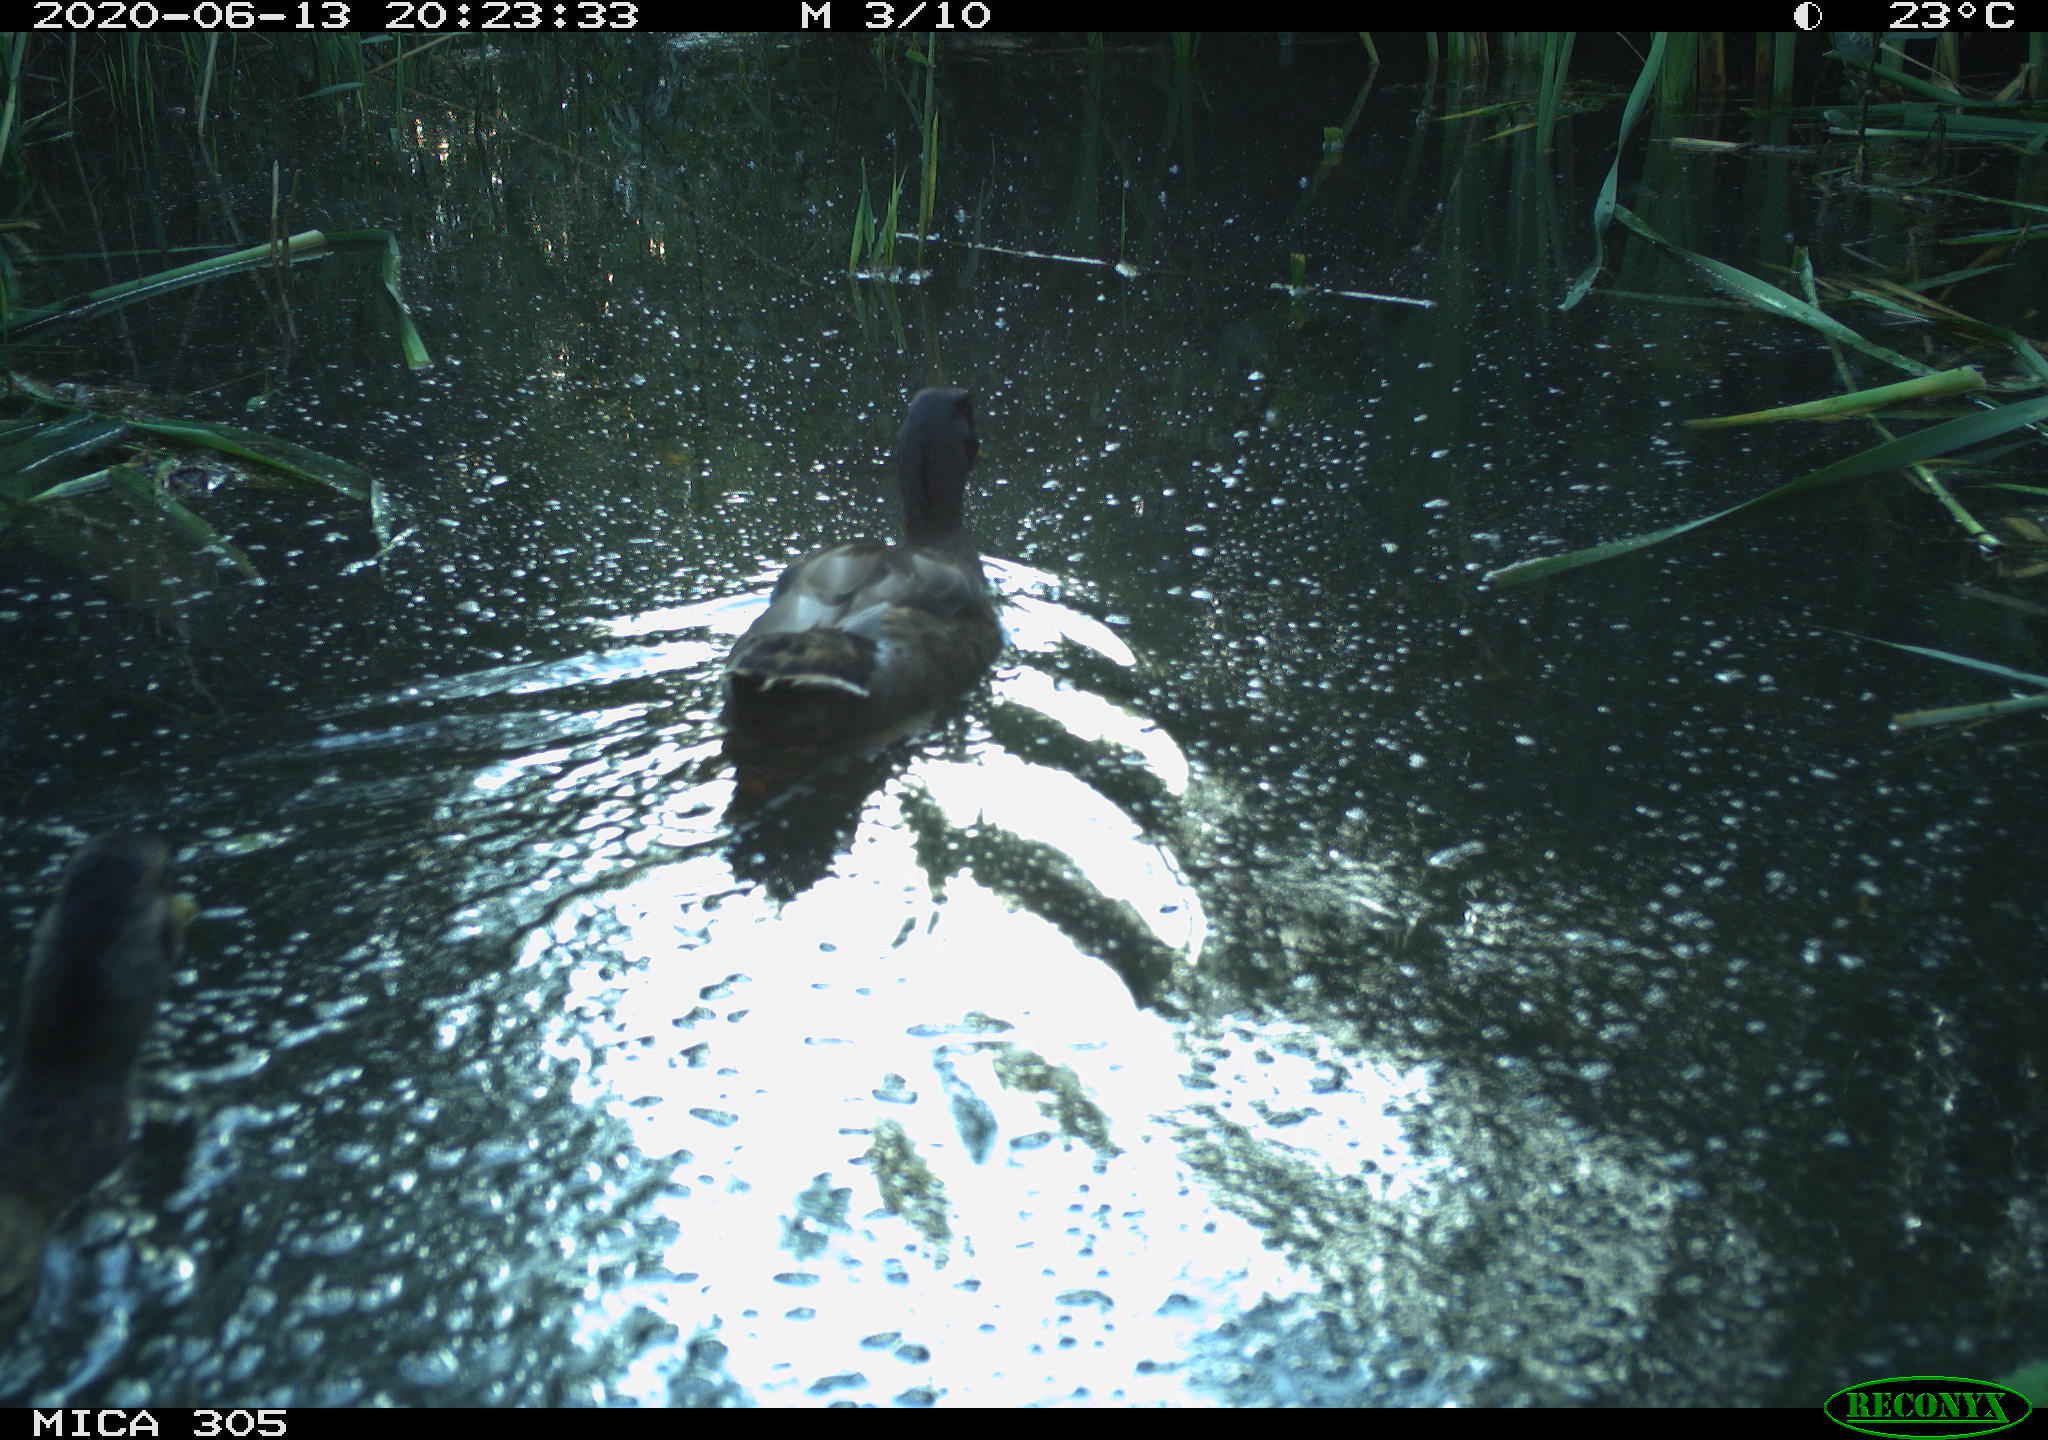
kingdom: Animalia
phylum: Chordata
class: Aves
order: Anseriformes
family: Anatidae
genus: Anas
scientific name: Anas platyrhynchos
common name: Mallard
